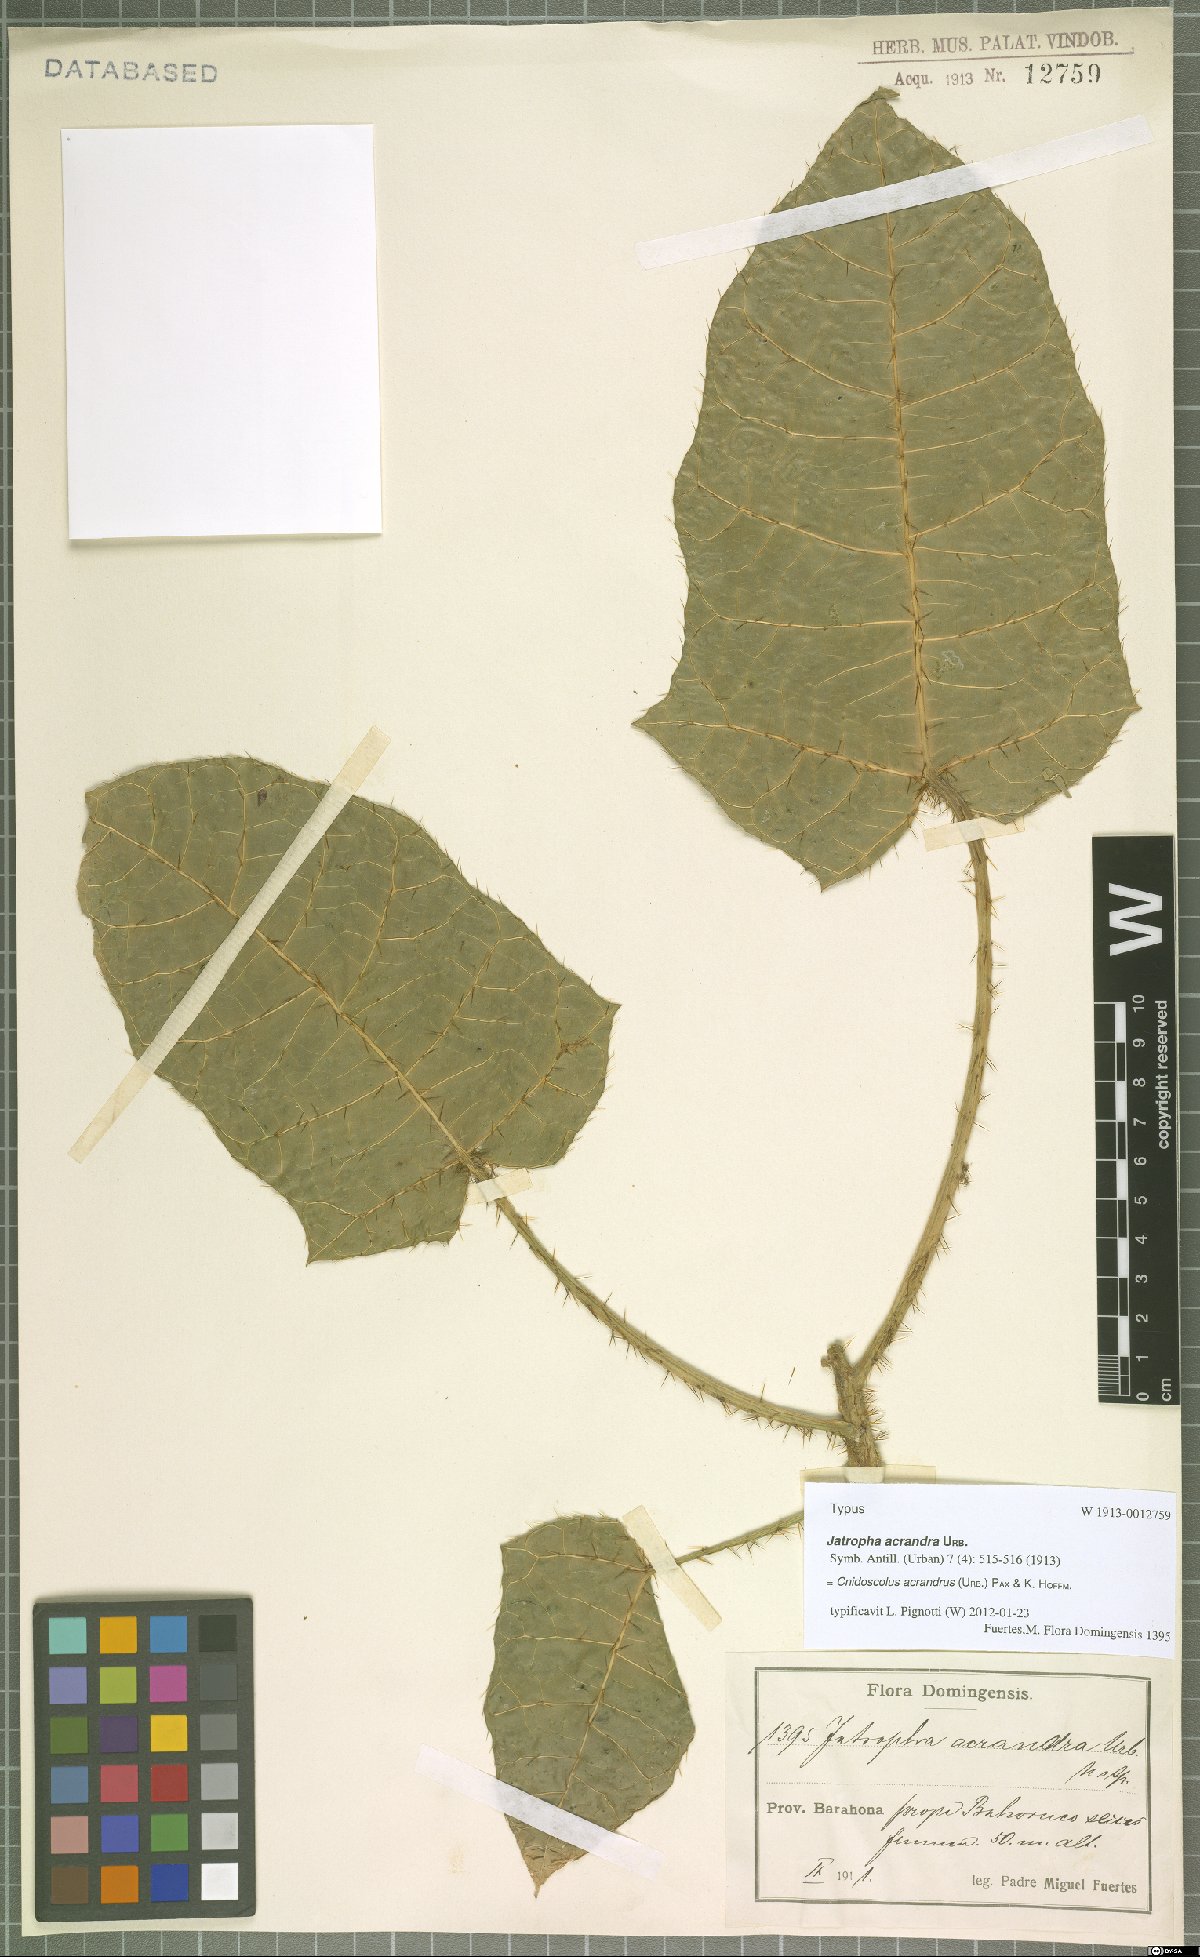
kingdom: Plantae
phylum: Tracheophyta
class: Magnoliopsida
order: Malpighiales
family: Euphorbiaceae
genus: Cnidoscolus
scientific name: Cnidoscolus acrandrus
